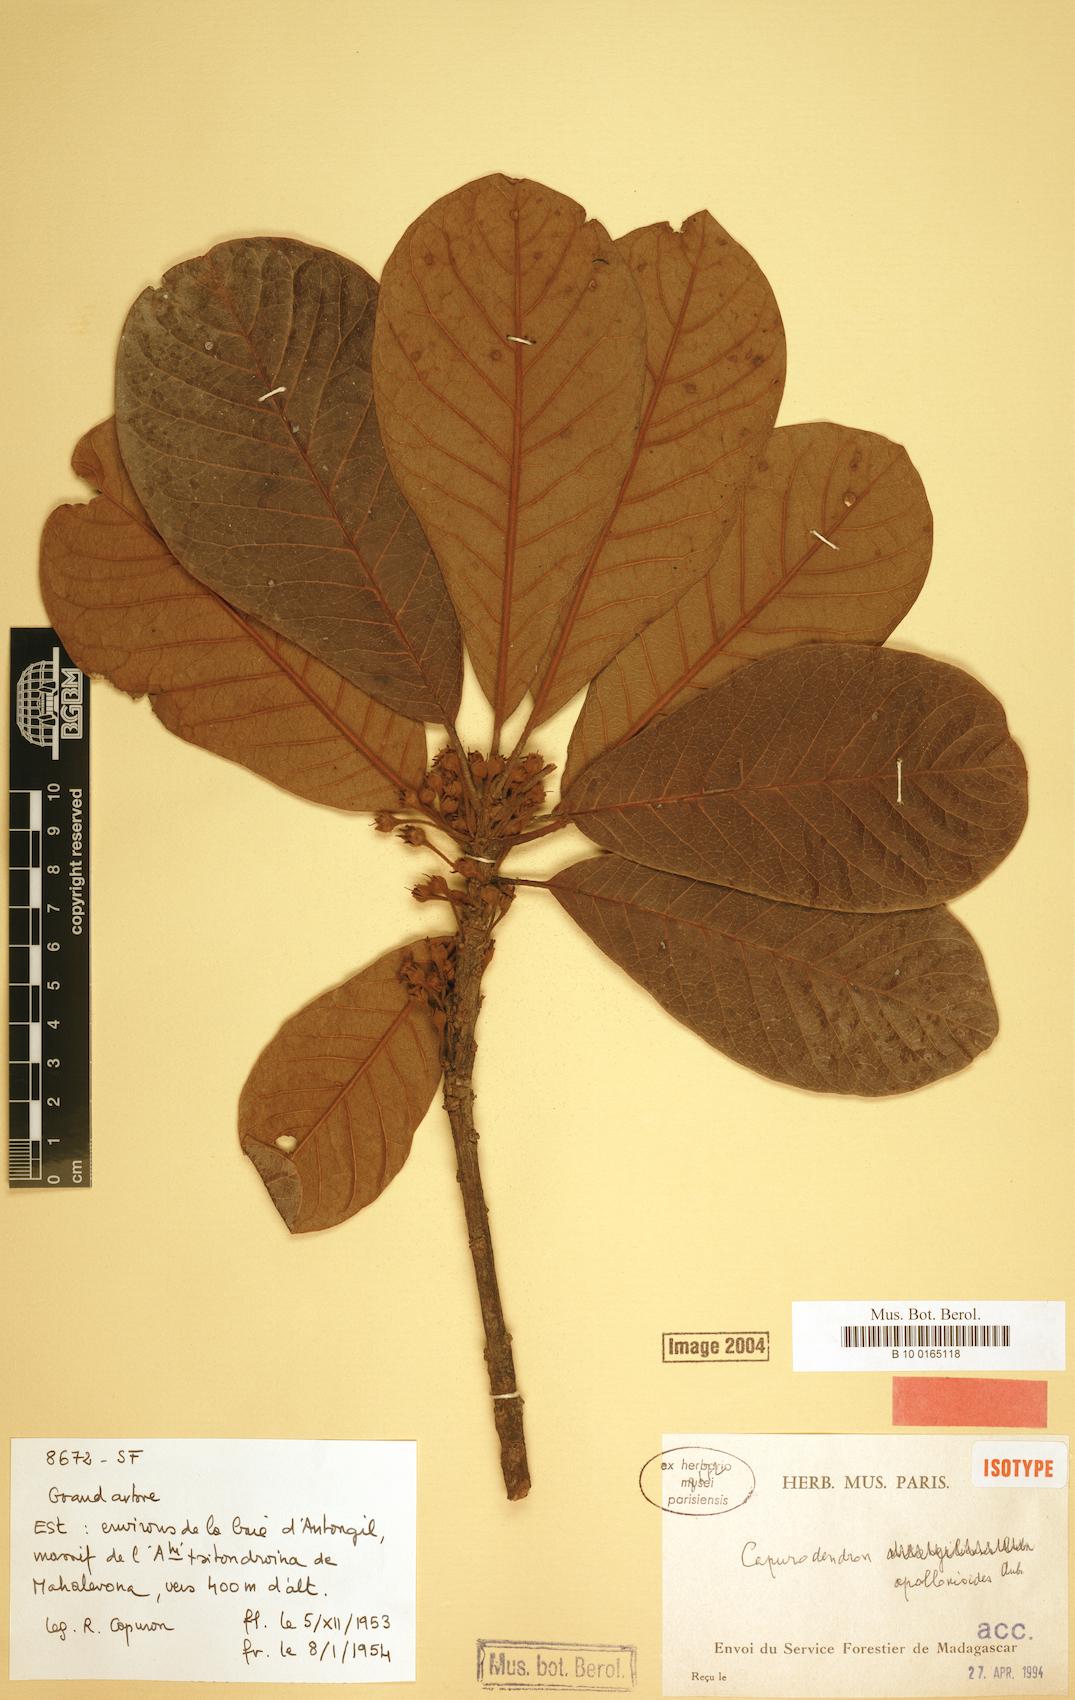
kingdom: Plantae
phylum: Tracheophyta
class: Magnoliopsida
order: Ericales
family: Sapotaceae
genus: Capurodendron
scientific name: Capurodendron apollonioides
